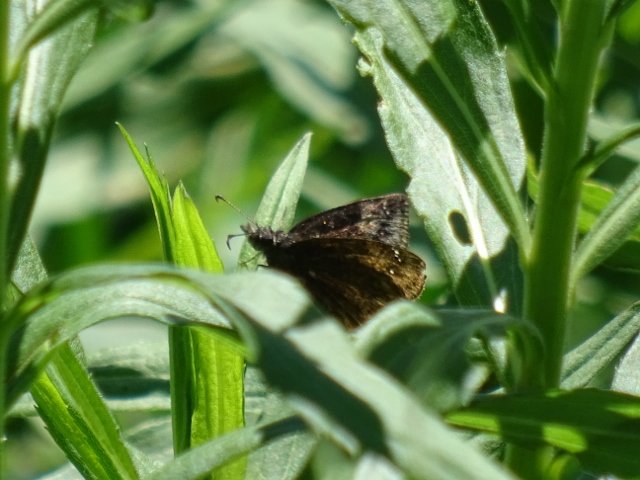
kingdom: Animalia
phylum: Arthropoda
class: Insecta
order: Lepidoptera
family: Hesperiidae
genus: Erynnis
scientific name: Erynnis
